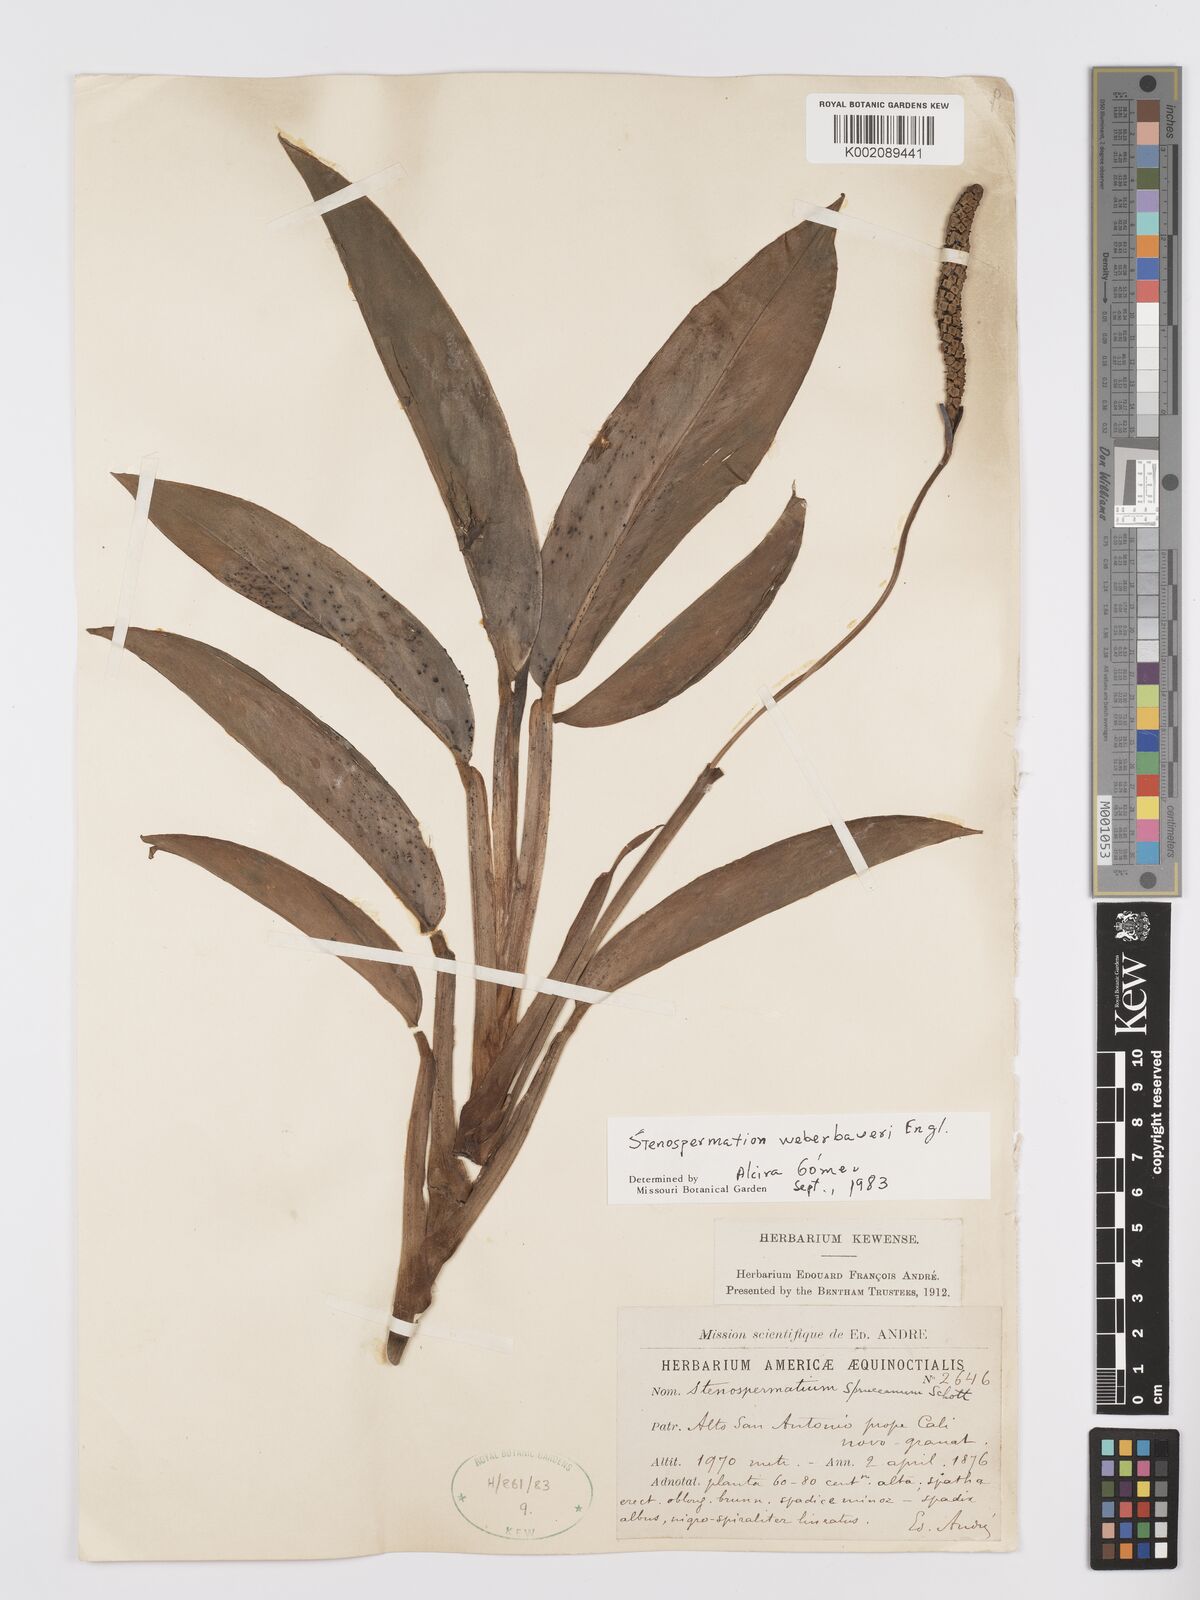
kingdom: Plantae
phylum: Tracheophyta
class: Liliopsida
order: Alismatales
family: Araceae
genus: Stenospermation
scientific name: Stenospermation weberbaueri
